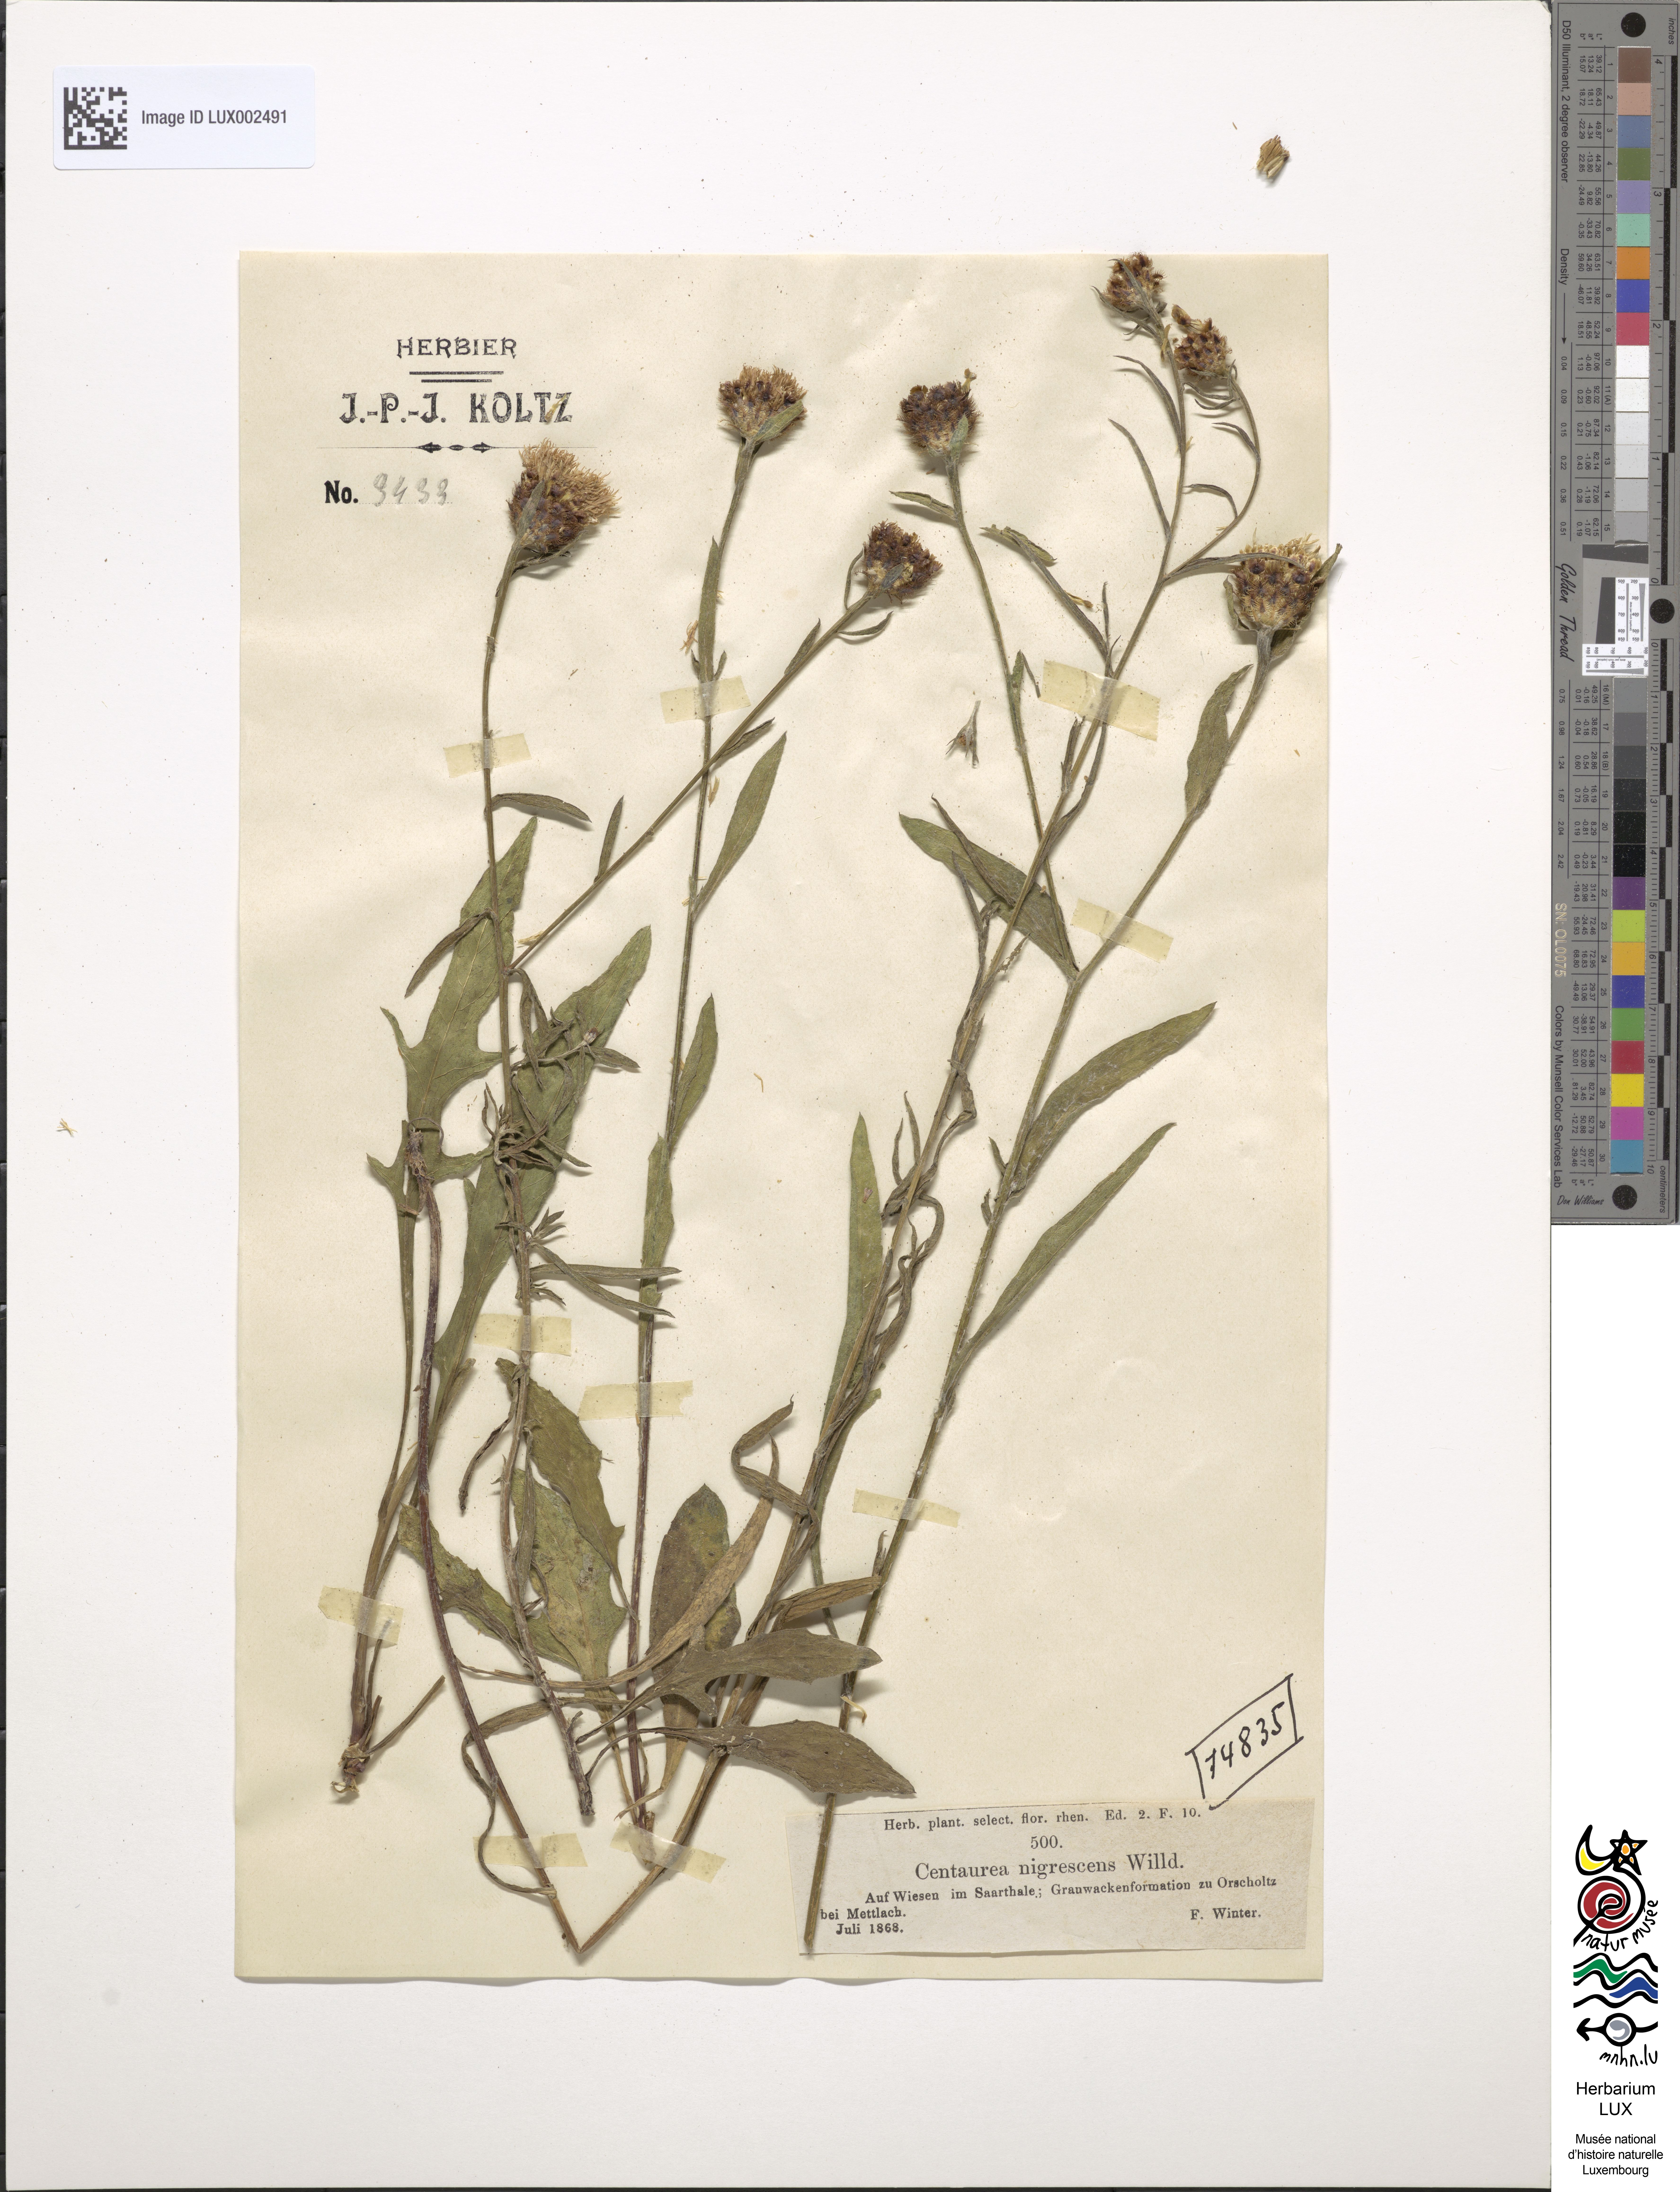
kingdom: Plantae
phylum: Tracheophyta
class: Magnoliopsida
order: Asterales
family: Asteraceae
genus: Centaurea
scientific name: Centaurea nigrescens
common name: Tyrol knapweed
